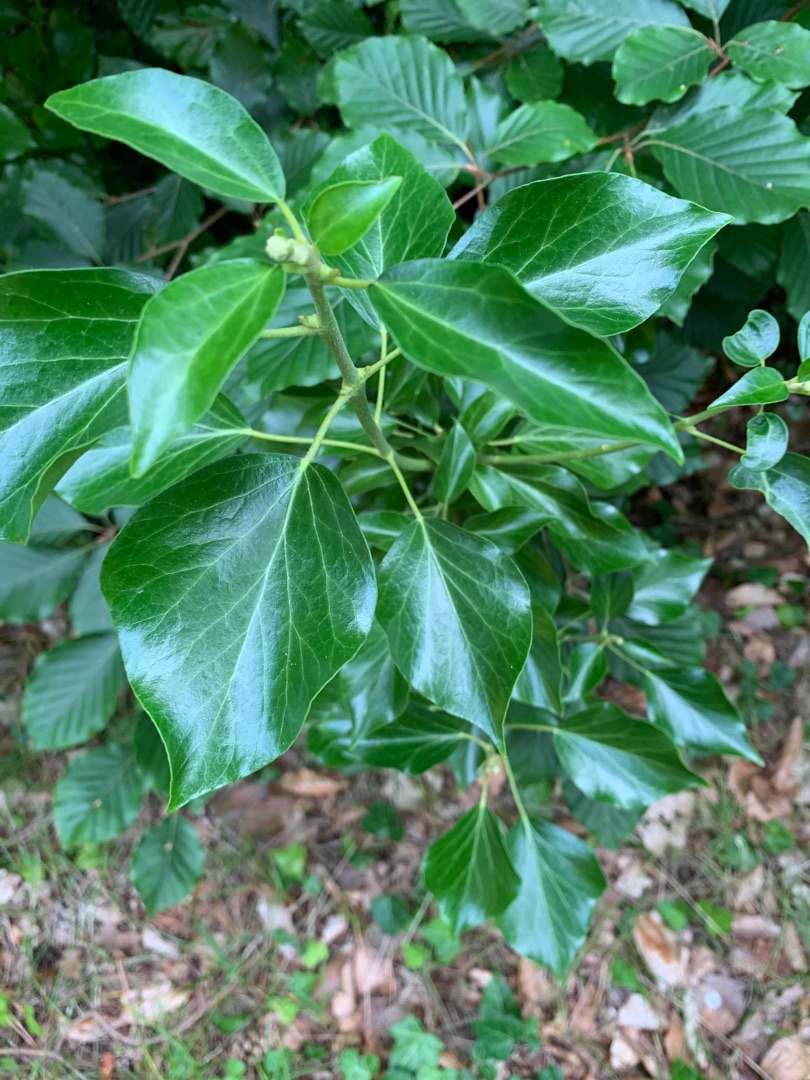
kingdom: Plantae
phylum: Tracheophyta
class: Magnoliopsida
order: Apiales
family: Araliaceae
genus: Hedera
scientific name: Hedera helix
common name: Vedbend
